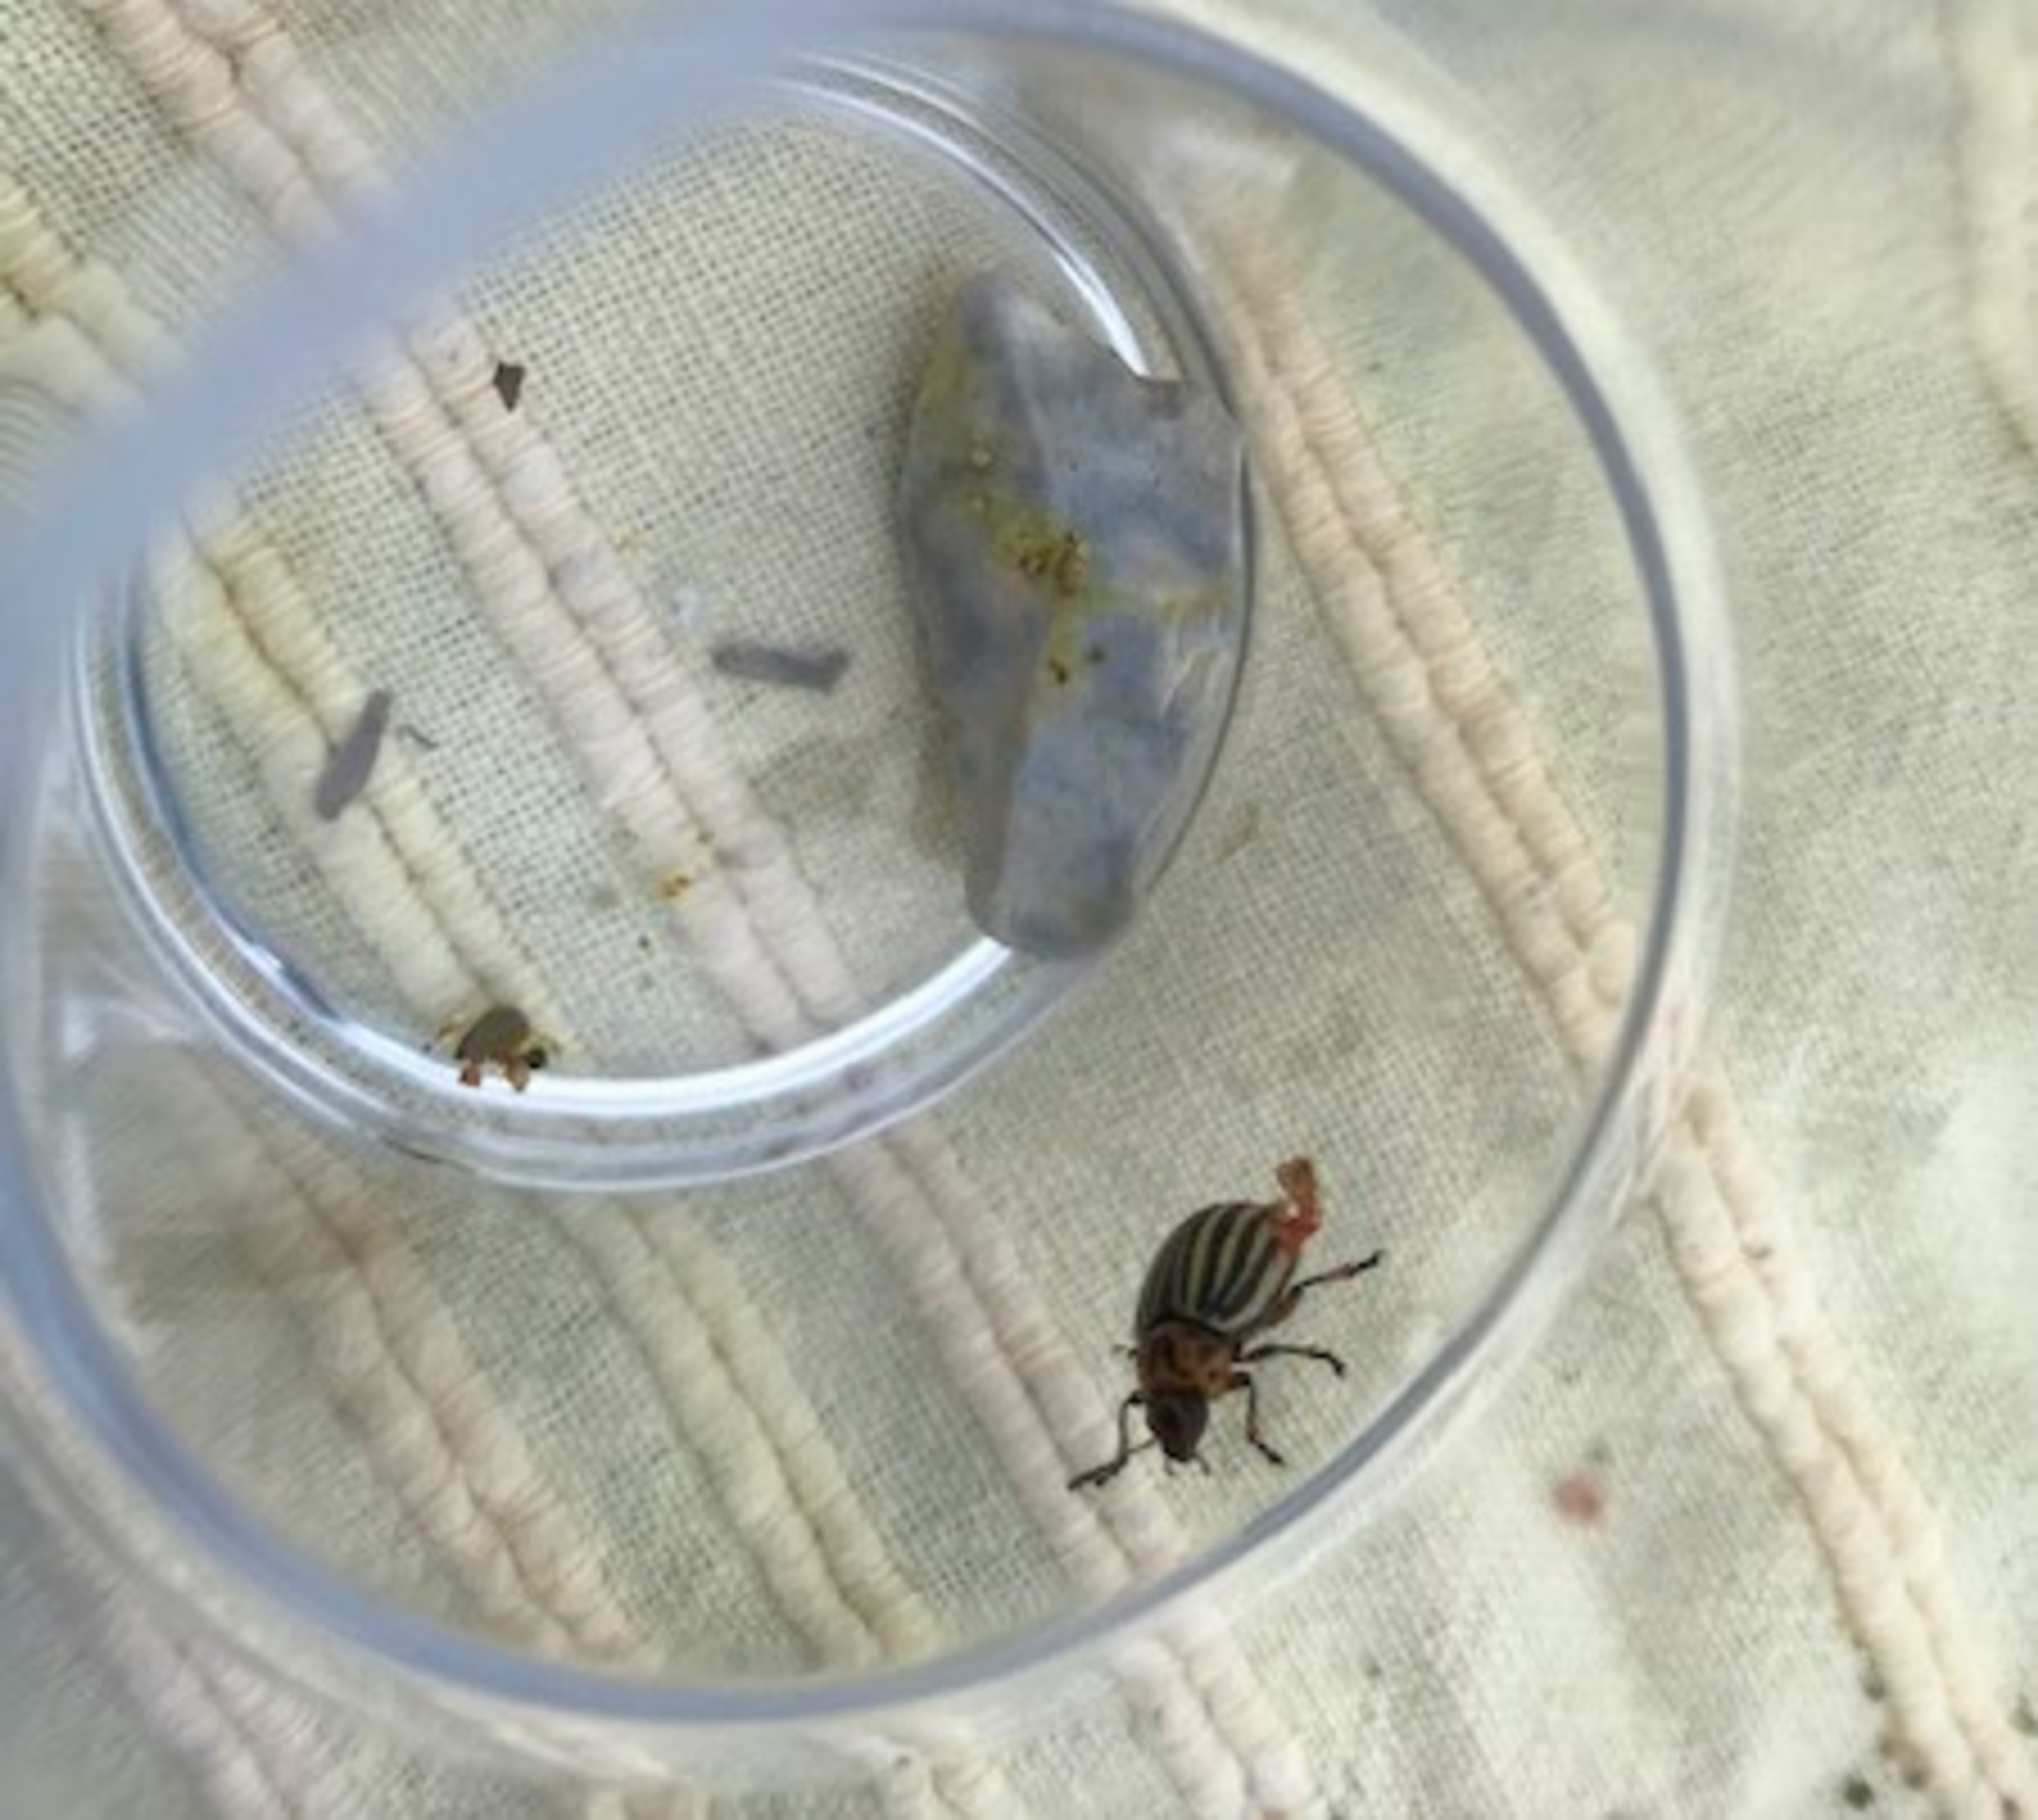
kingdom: Animalia
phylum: Arthropoda
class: Insecta
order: Coleoptera
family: Chrysomelidae
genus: Leptinotarsa
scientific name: Leptinotarsa decemlineata
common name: Coloradobille
